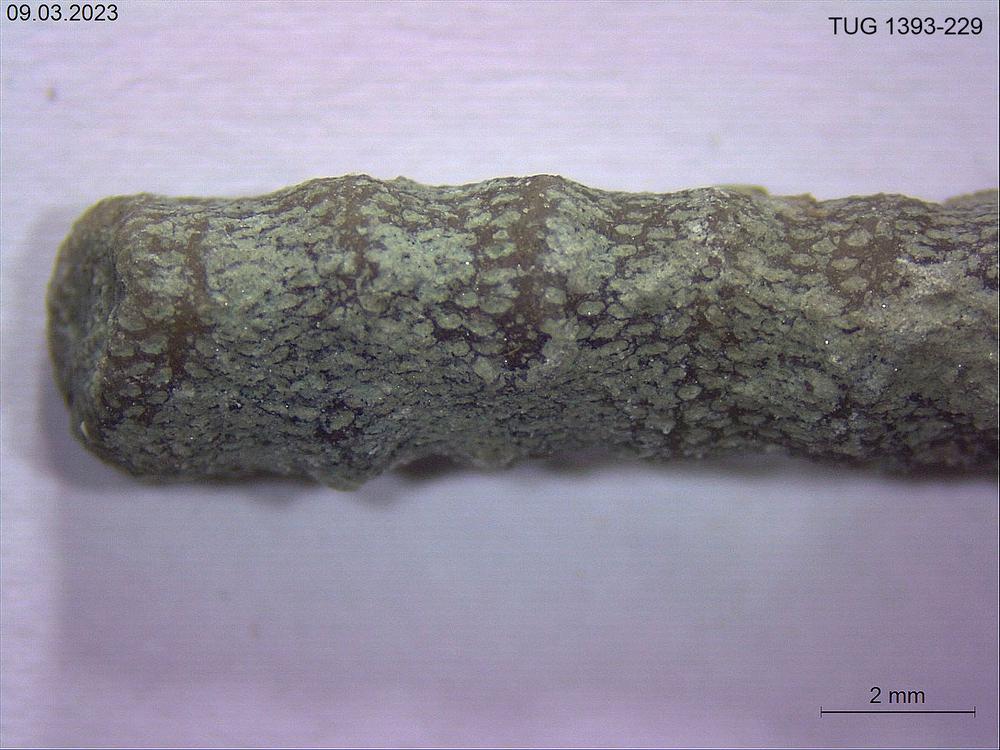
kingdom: Animalia
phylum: Bryozoa
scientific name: Bryozoa
